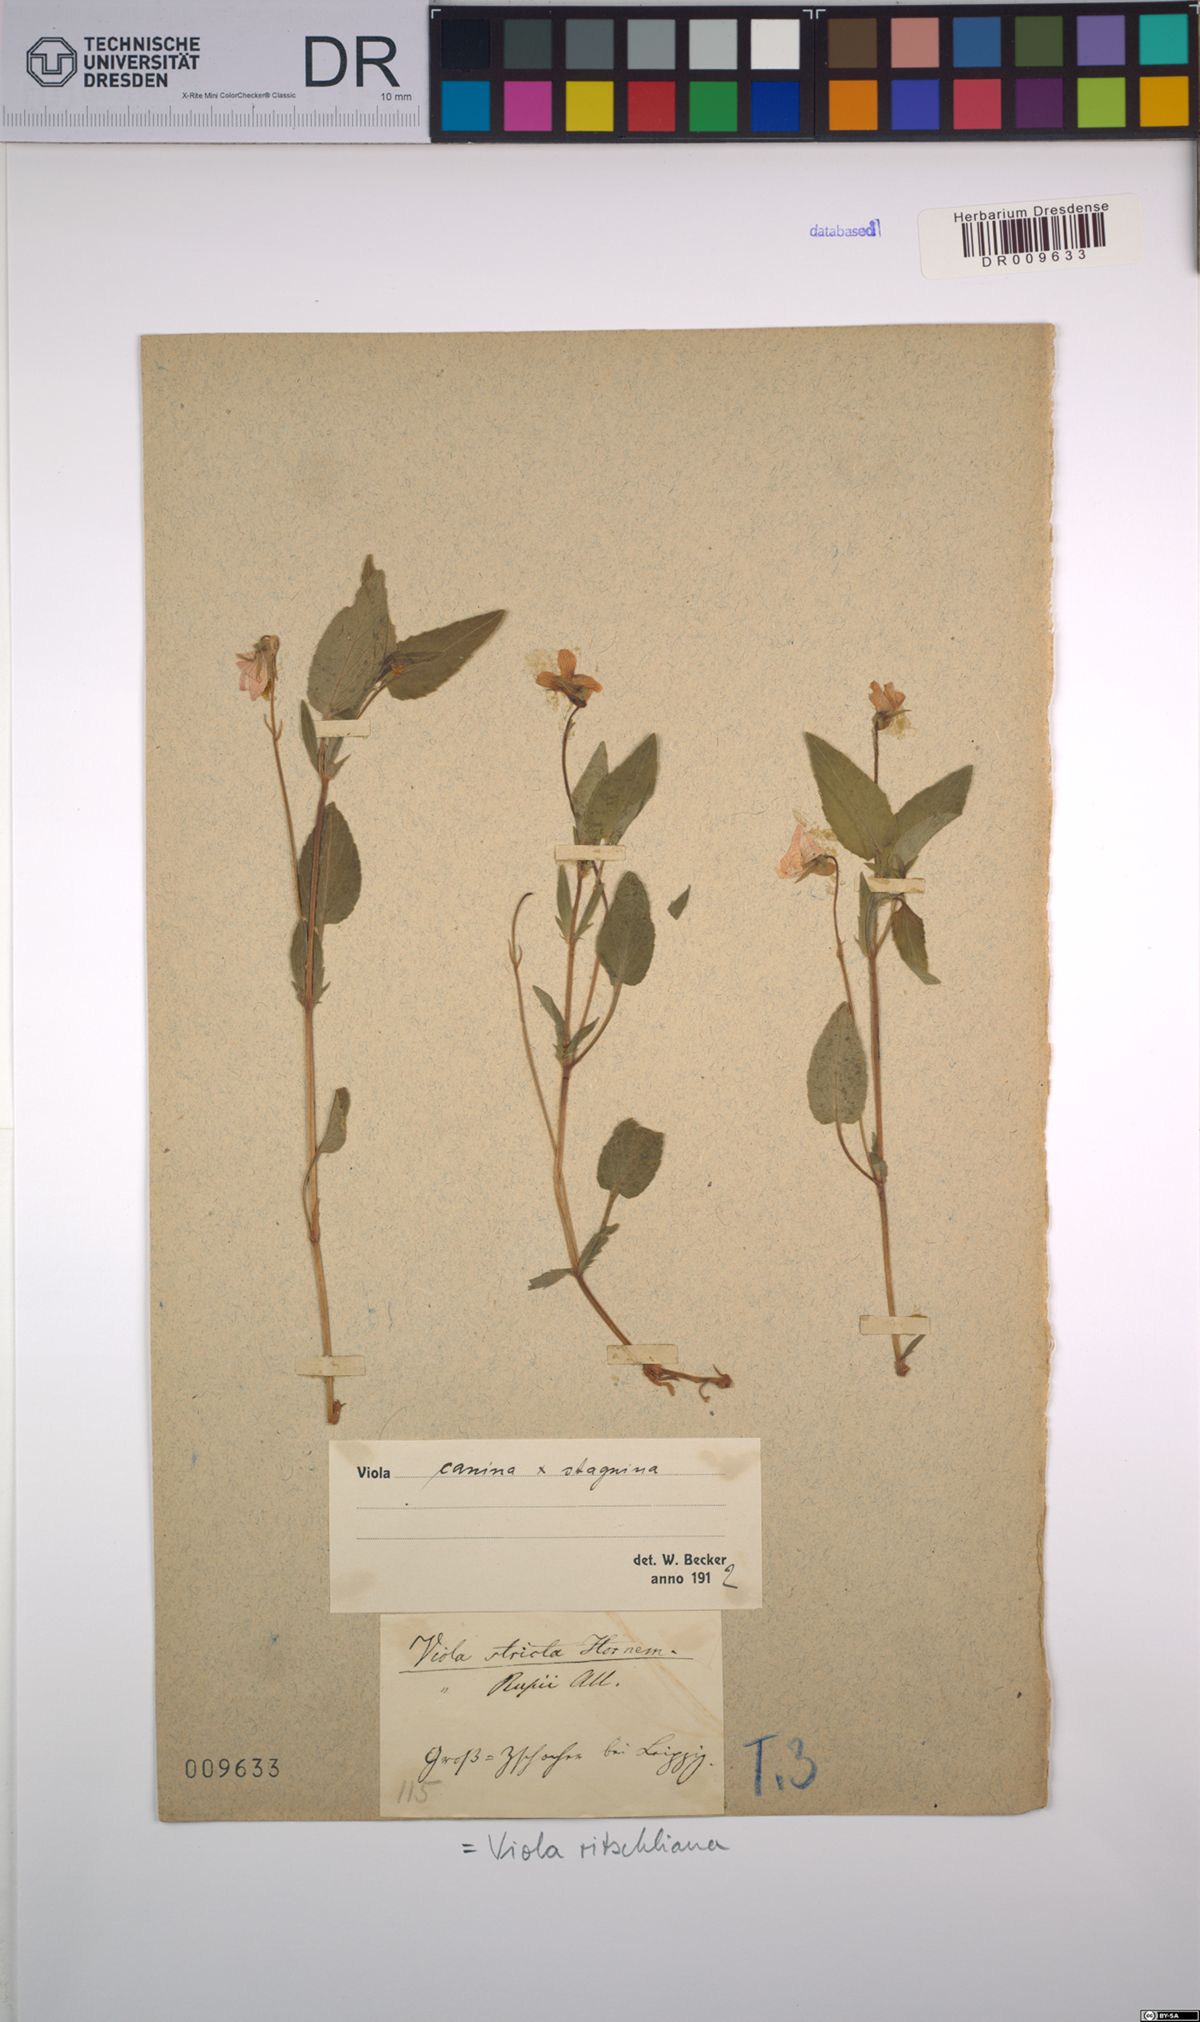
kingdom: Plantae
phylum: Tracheophyta
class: Magnoliopsida
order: Malpighiales
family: Violaceae
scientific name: Violaceae
